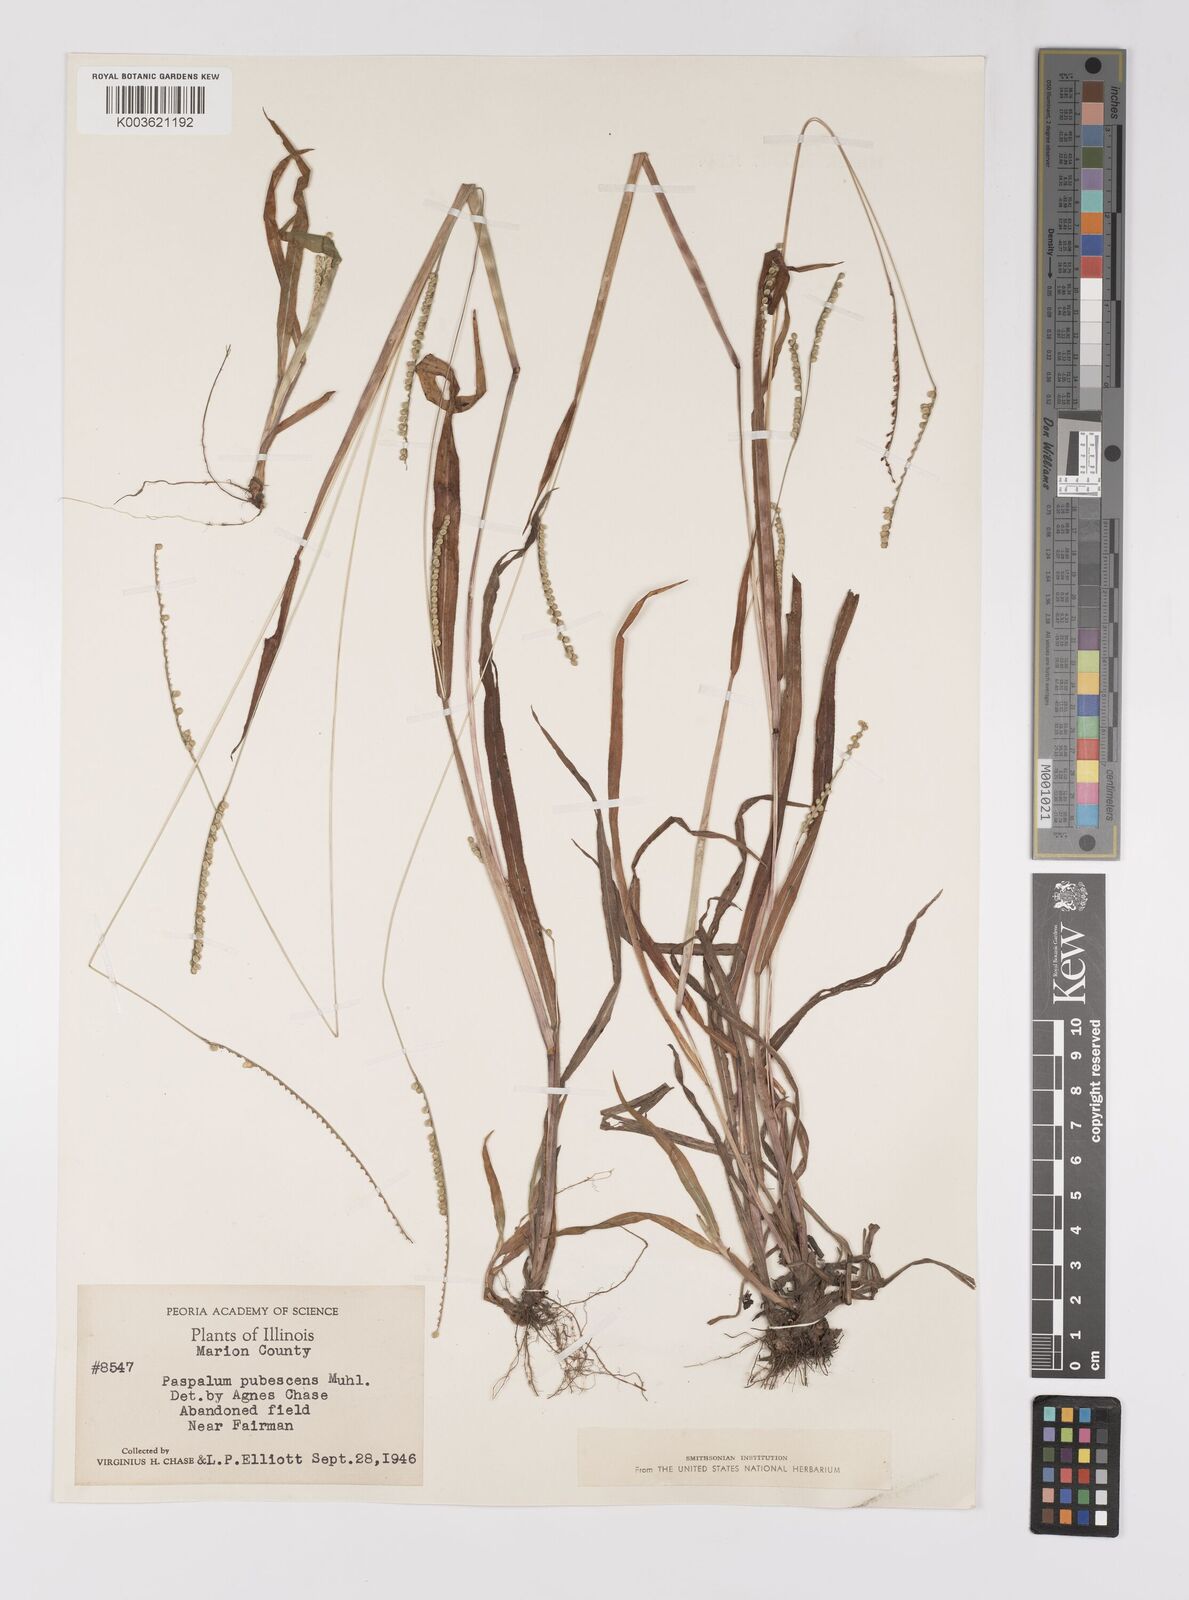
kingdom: Plantae
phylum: Tracheophyta
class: Liliopsida
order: Poales
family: Poaceae
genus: Paspalum
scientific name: Paspalum setaceum
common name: Slender paspalum
